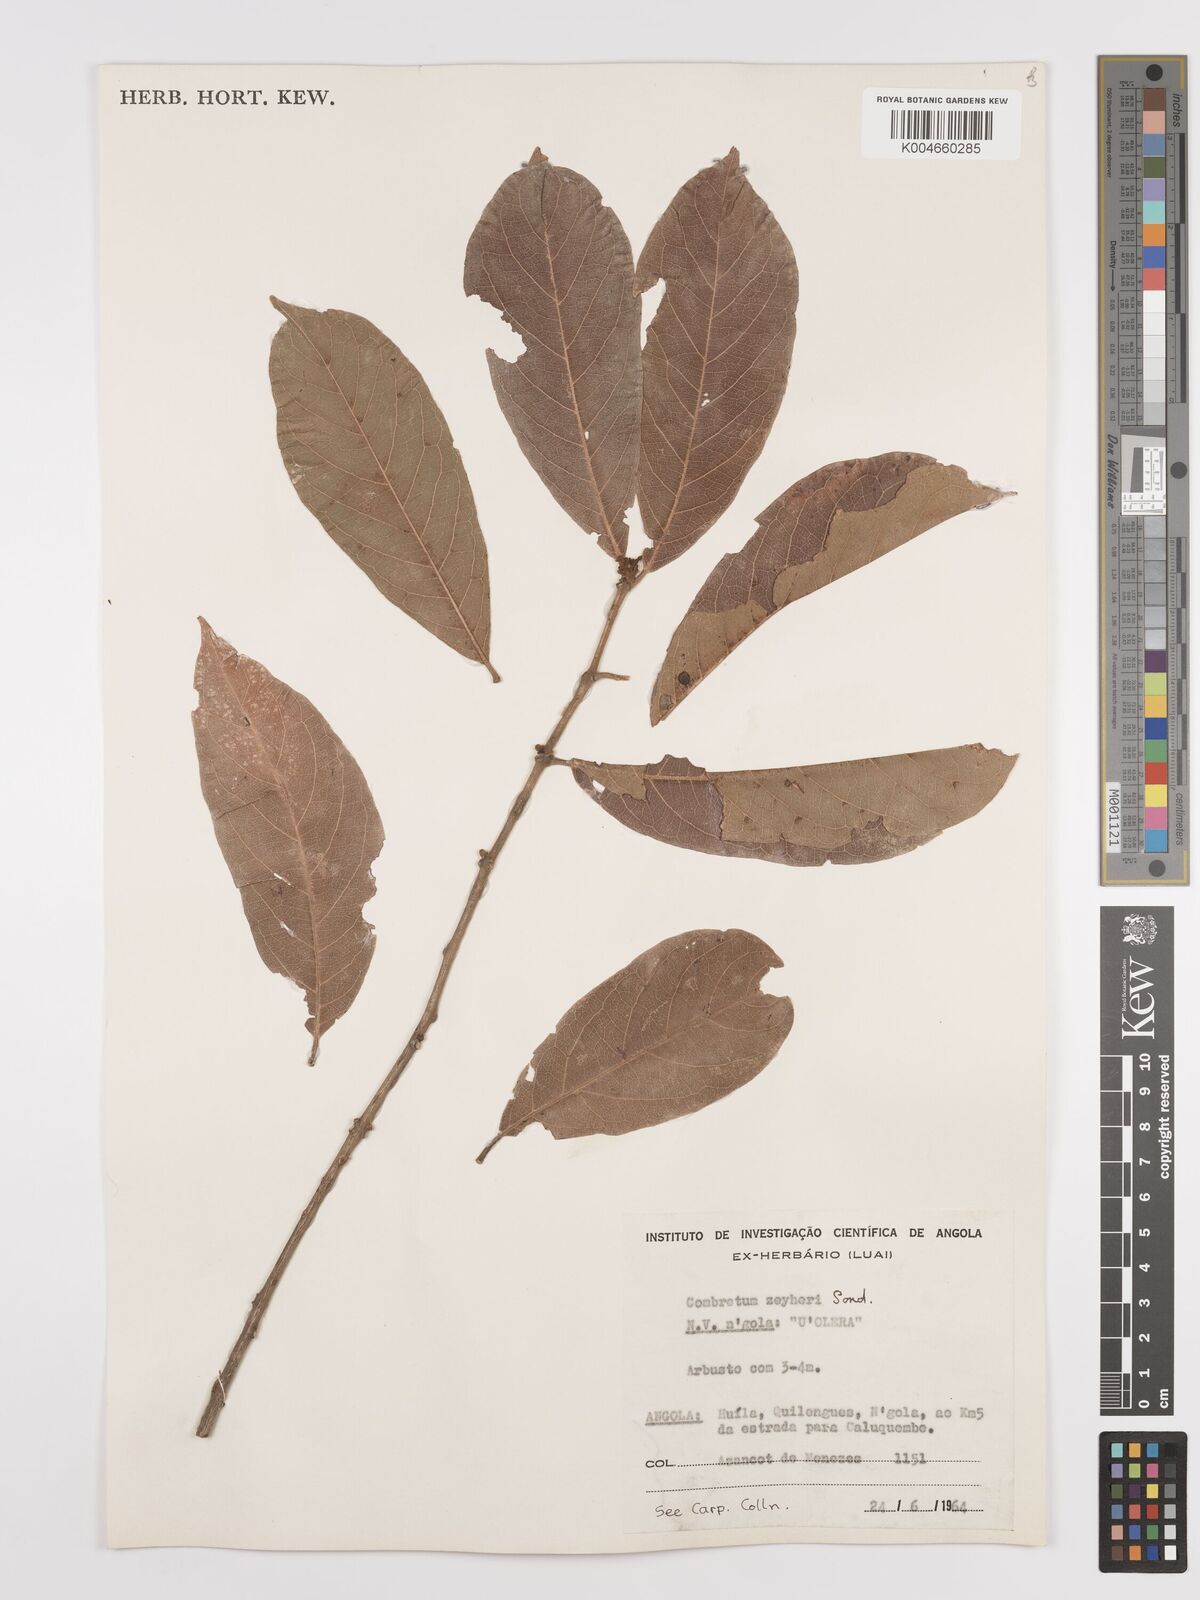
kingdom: Plantae
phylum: Tracheophyta
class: Magnoliopsida
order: Myrtales
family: Combretaceae
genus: Combretum
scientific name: Combretum zeyheri
